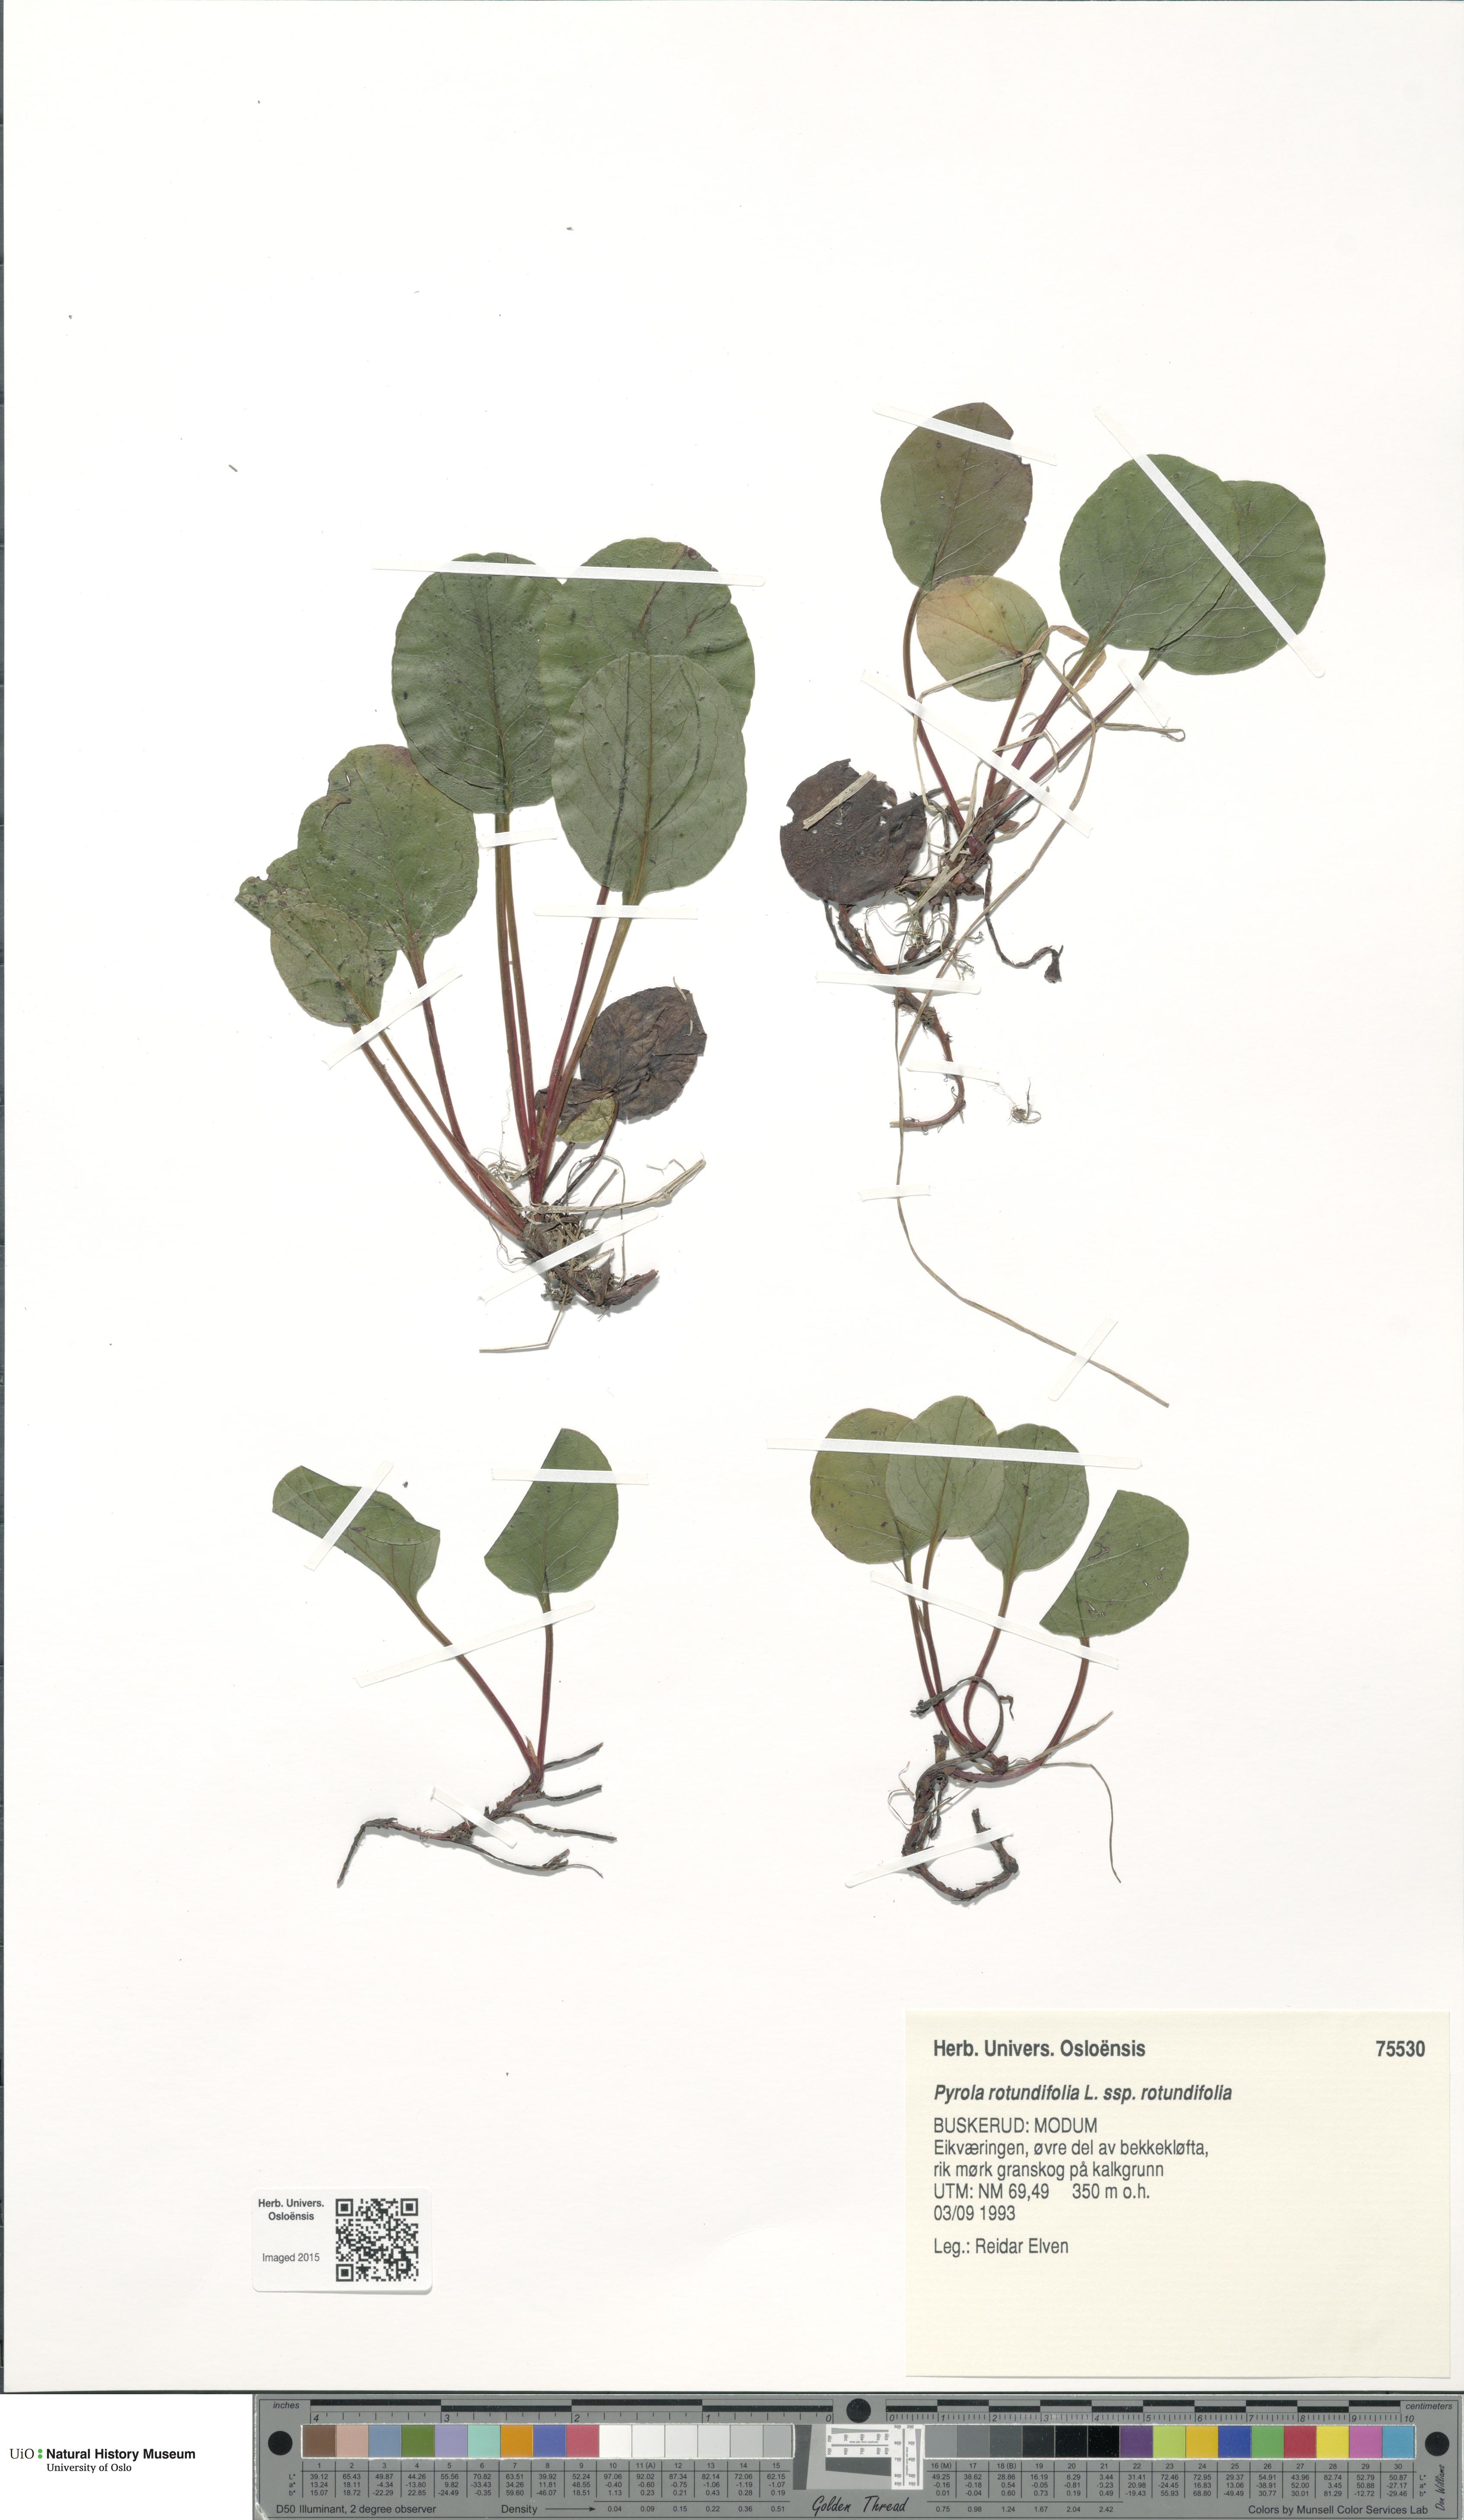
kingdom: Plantae
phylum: Tracheophyta
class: Magnoliopsida
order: Ericales
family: Ericaceae
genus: Pyrola
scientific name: Pyrola rotundifolia
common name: Round-leaved wintergreen
